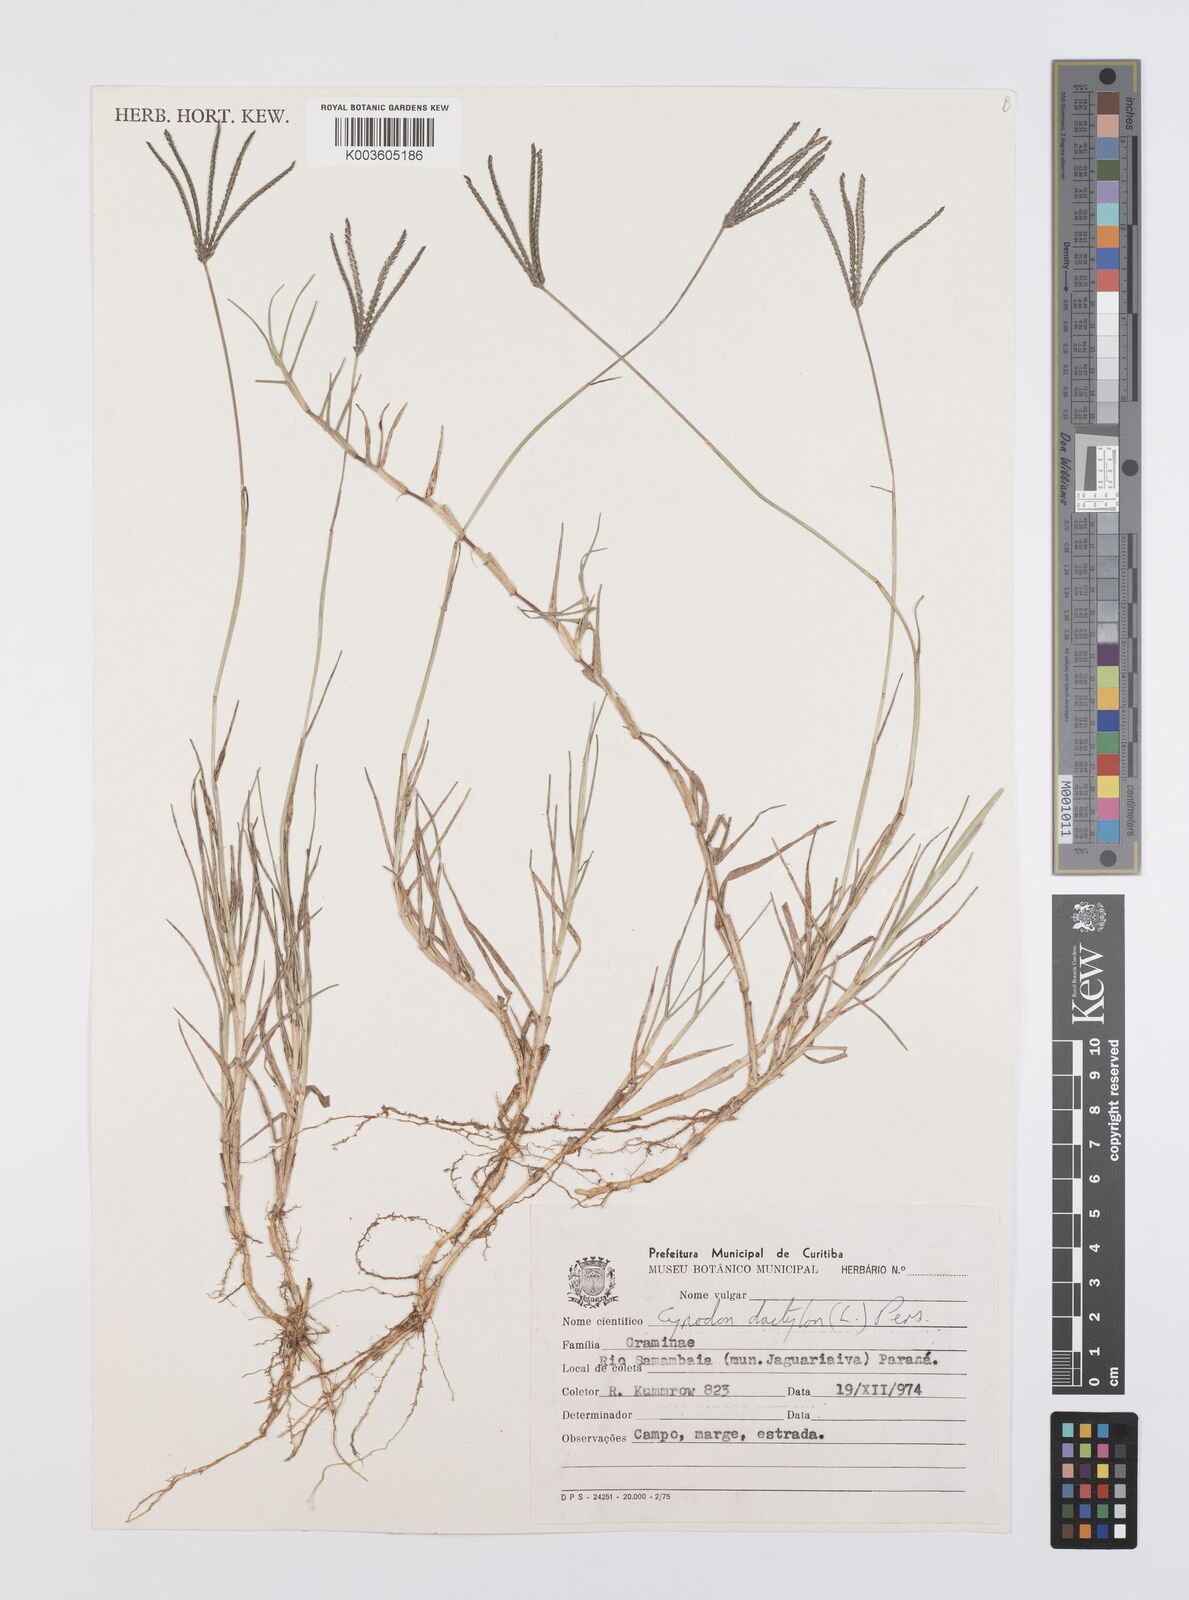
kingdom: Plantae
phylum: Tracheophyta
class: Liliopsida
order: Poales
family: Poaceae
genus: Cynodon
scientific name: Cynodon dactylon
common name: Bermuda grass
